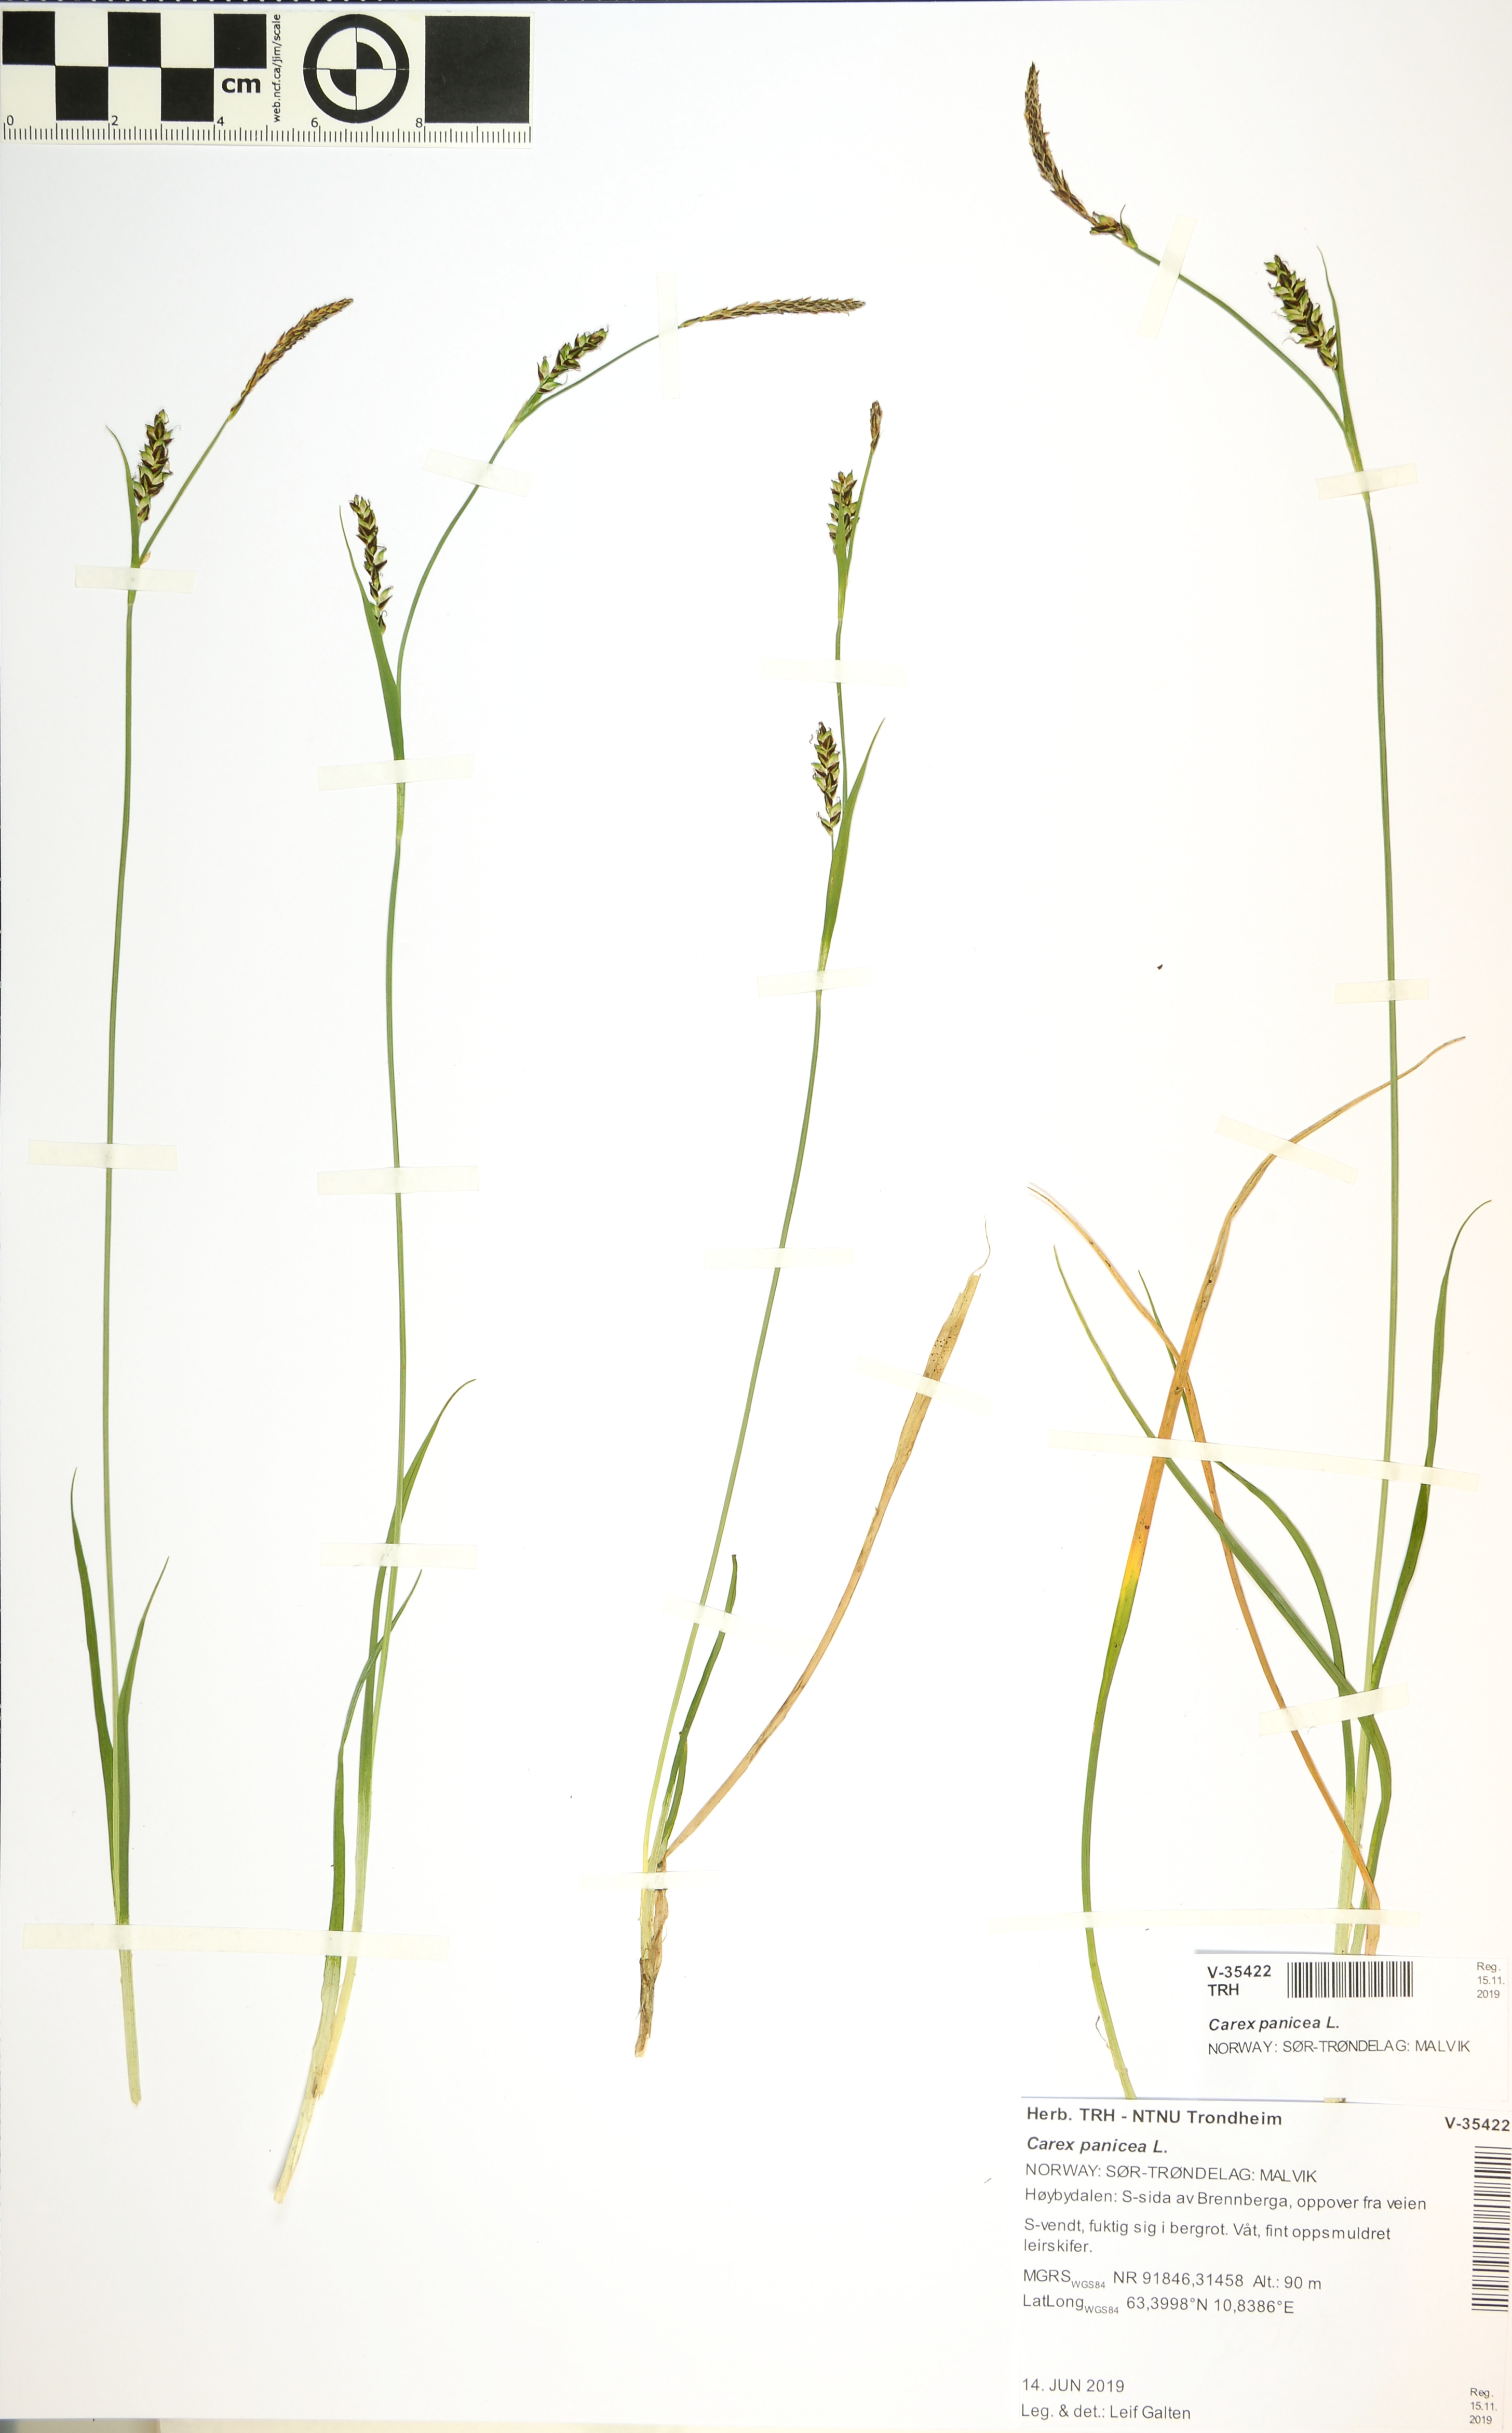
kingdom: Plantae
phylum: Tracheophyta
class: Liliopsida
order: Poales
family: Cyperaceae
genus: Carex
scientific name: Carex panicea
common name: Carnation sedge
